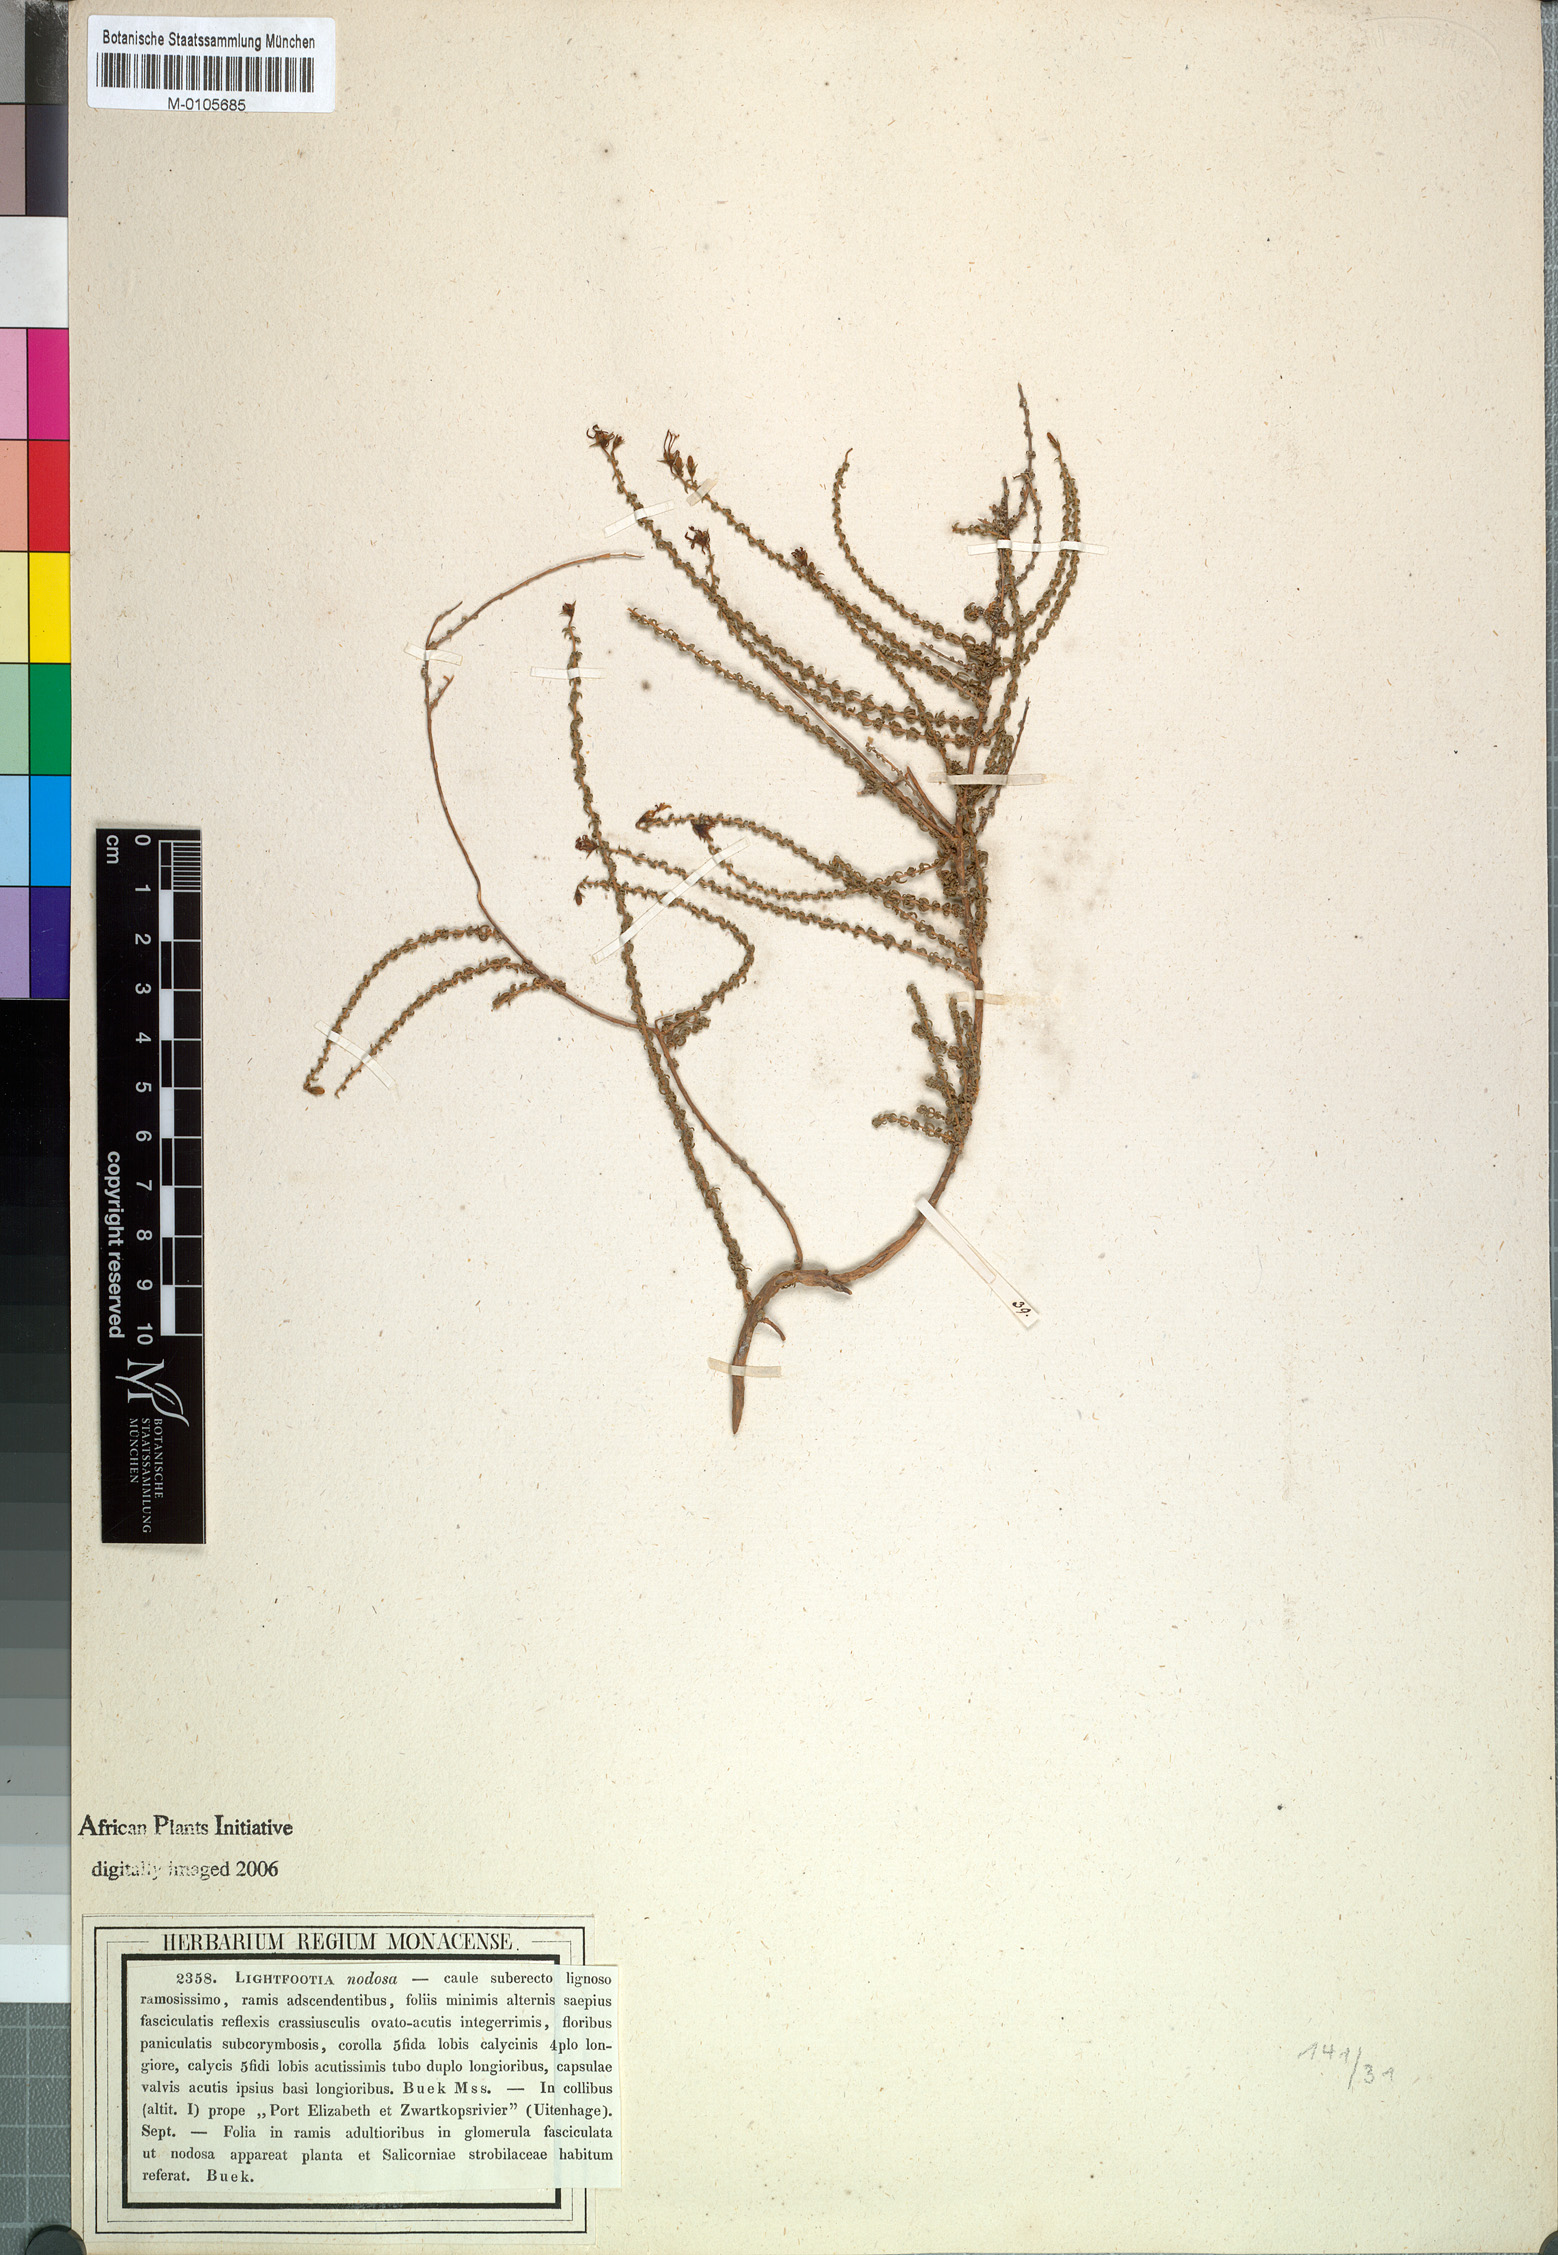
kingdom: Plantae
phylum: Tracheophyta
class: Magnoliopsida
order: Asterales
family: Campanulaceae
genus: Wahlenbergia
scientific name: Wahlenbergia nodosa
